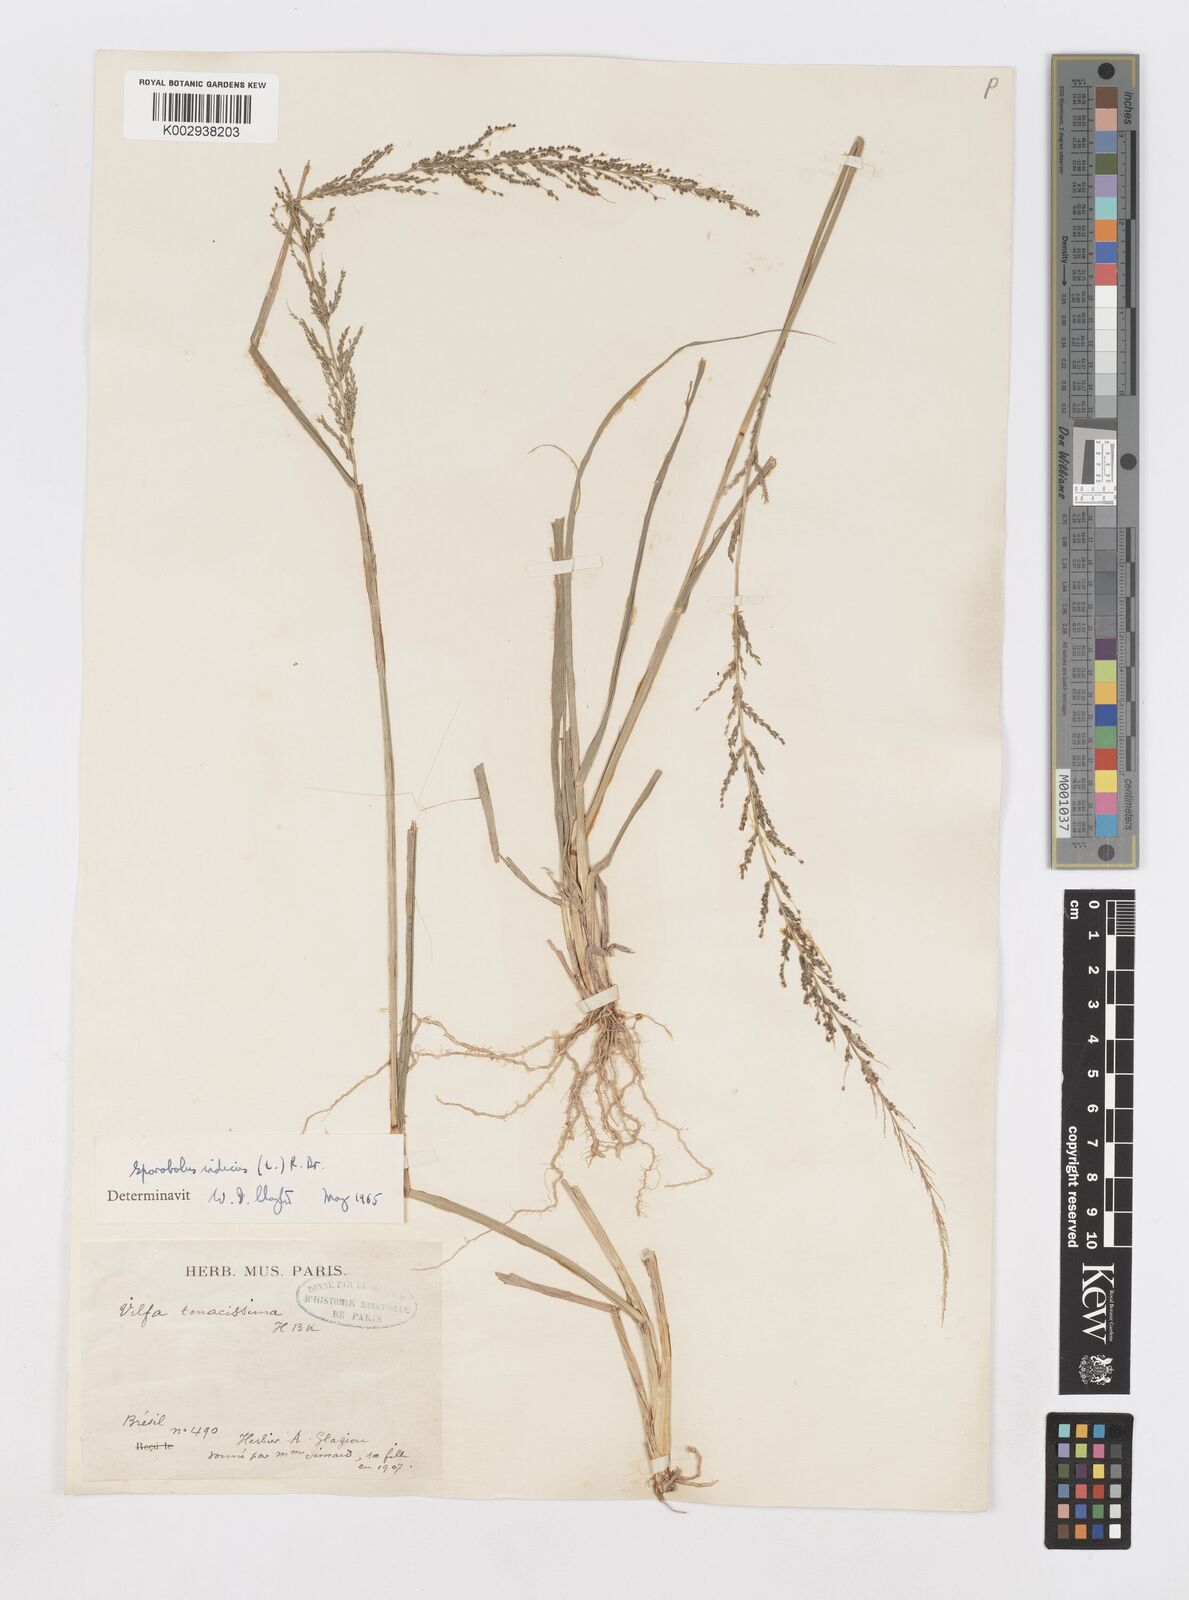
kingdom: Plantae
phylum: Tracheophyta
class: Liliopsida
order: Poales
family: Poaceae
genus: Sporobolus
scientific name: Sporobolus indicus
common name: Smut grass
